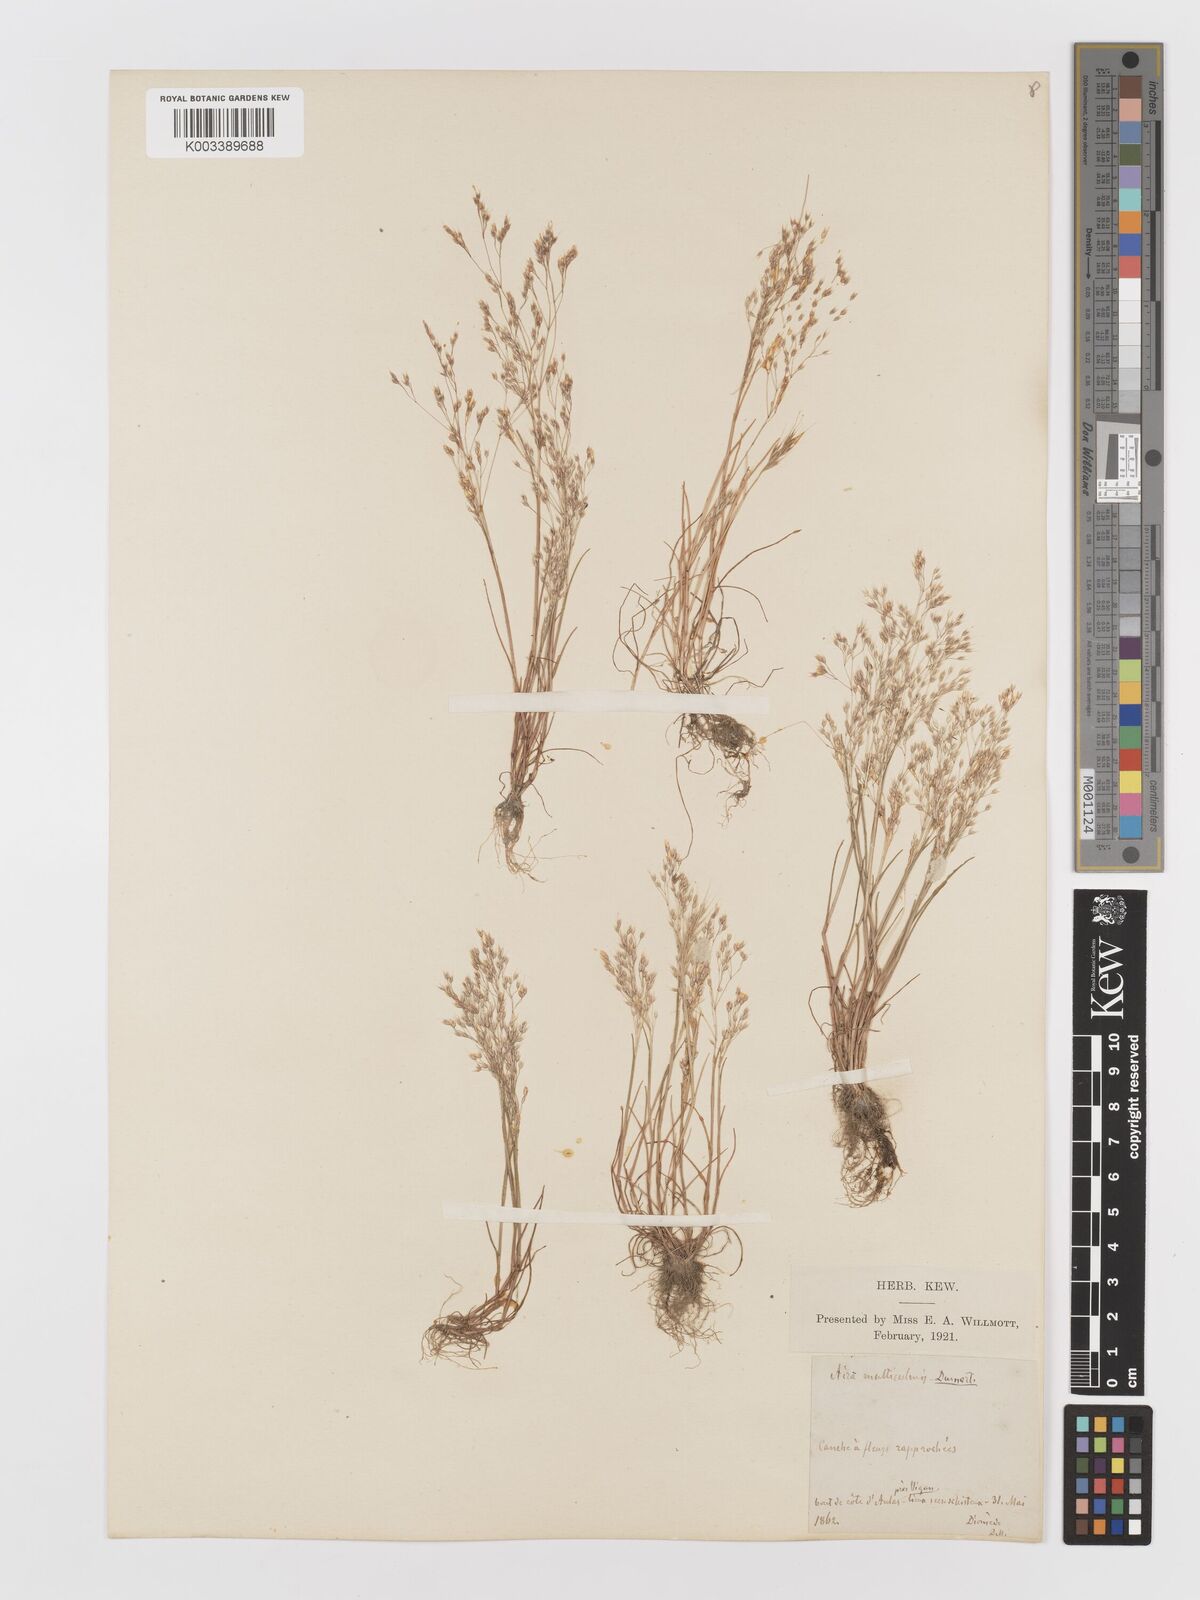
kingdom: Plantae
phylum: Tracheophyta
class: Liliopsida
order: Poales
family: Poaceae
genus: Aira
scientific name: Aira caryophyllea
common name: Silver hairgrass
